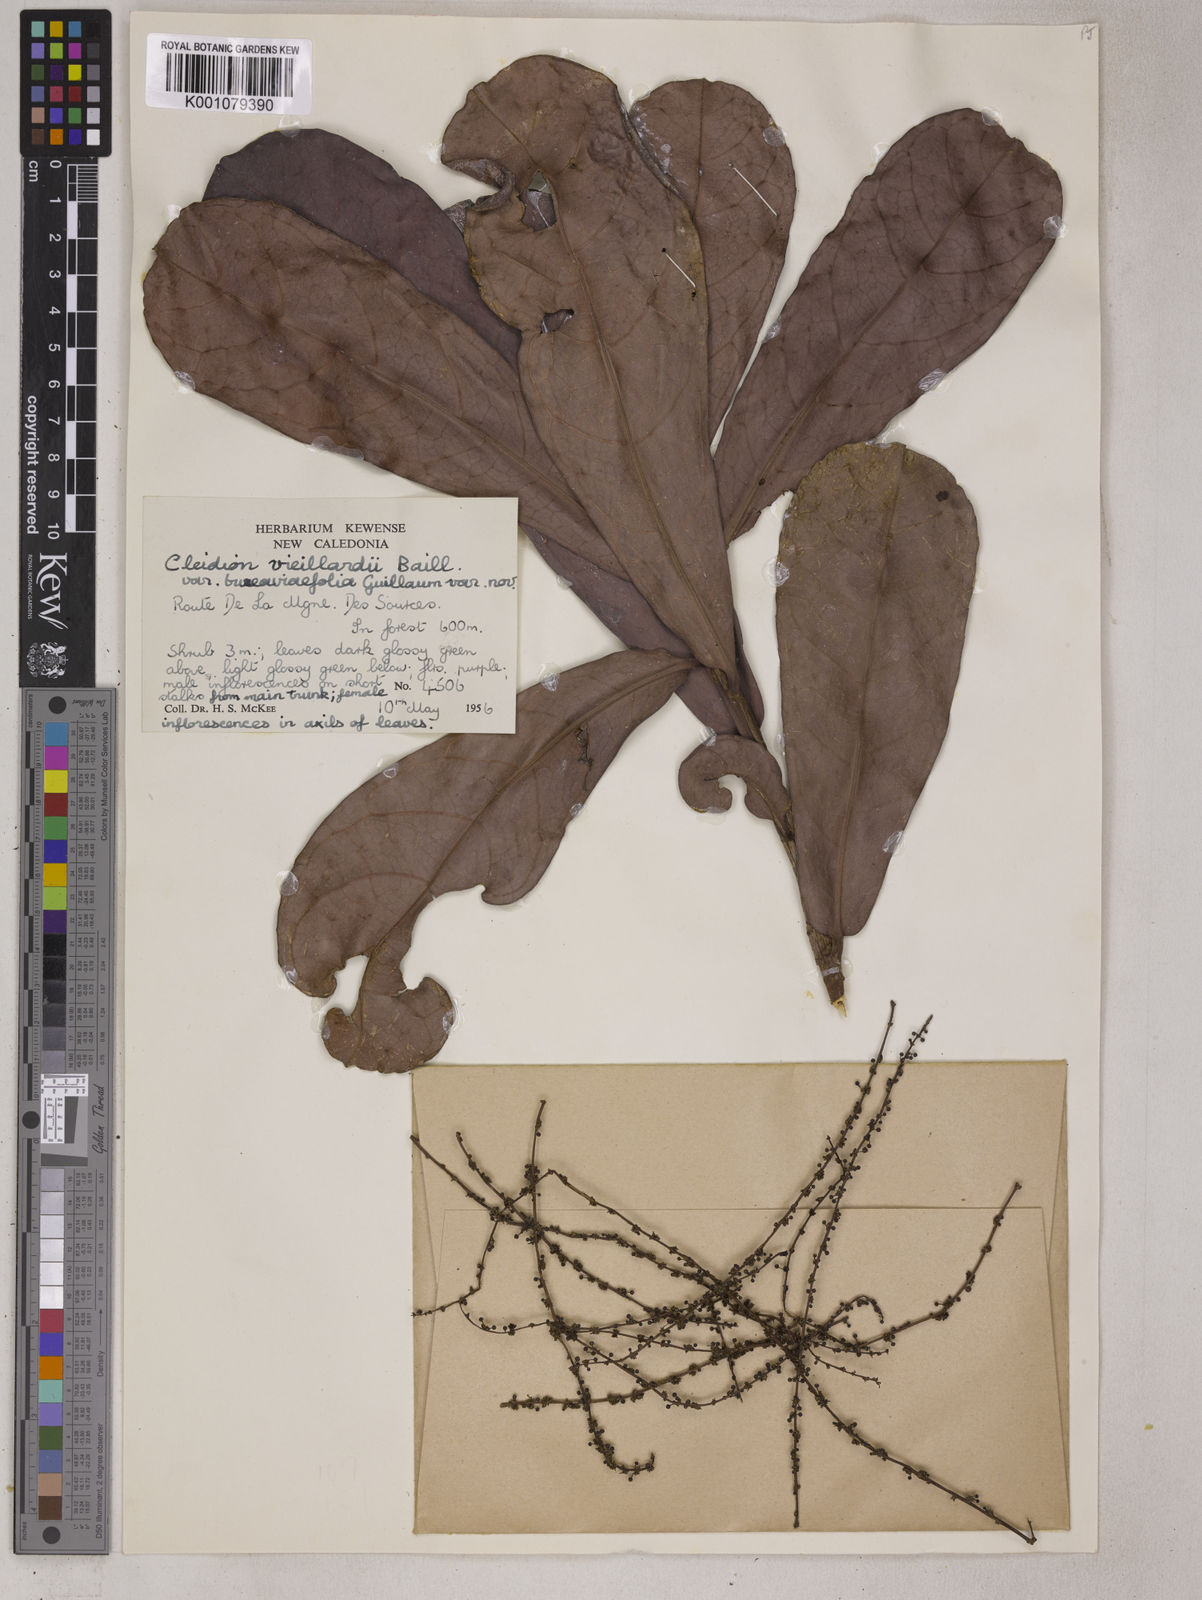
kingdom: Plantae
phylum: Tracheophyta
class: Magnoliopsida
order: Malpighiales
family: Euphorbiaceae
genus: Cleidion
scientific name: Cleidion vieillardii
